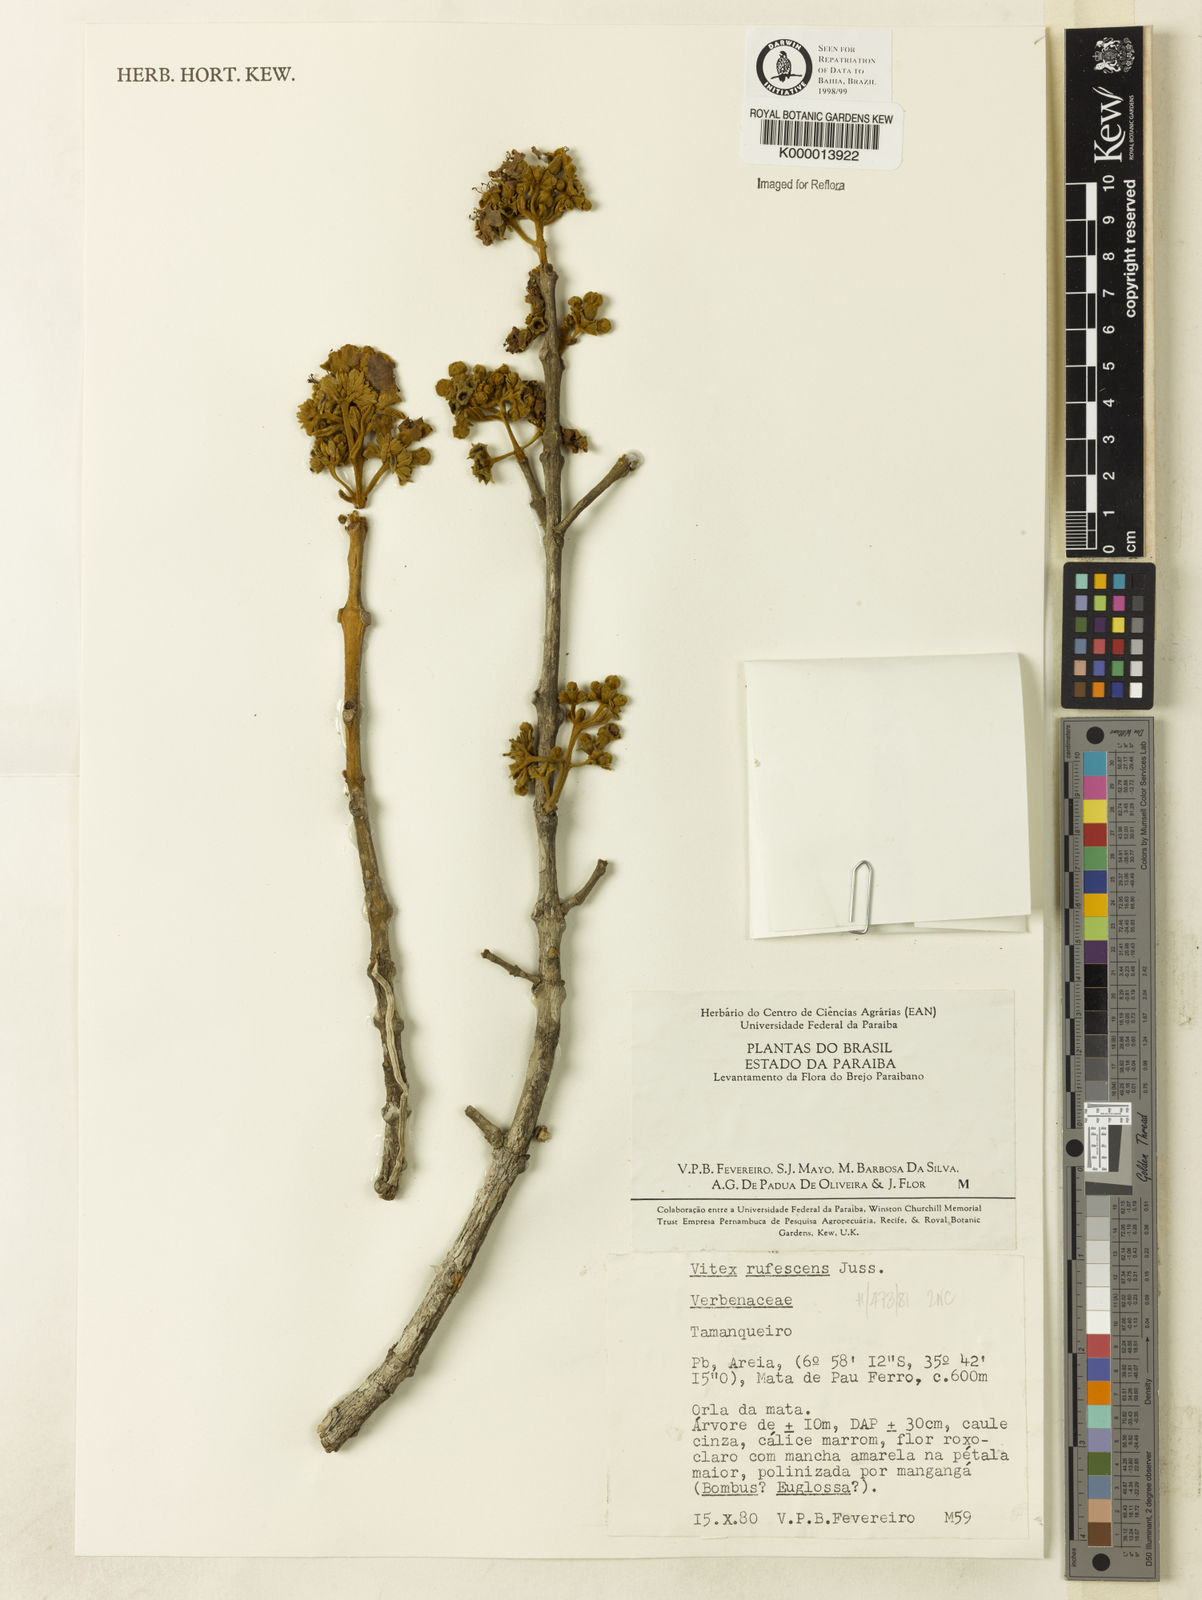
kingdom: Plantae
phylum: Tracheophyta
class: Magnoliopsida
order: Lamiales
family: Lamiaceae
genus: Vitex
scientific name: Vitex rufescens
